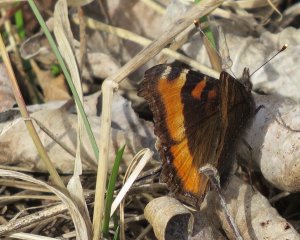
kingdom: Animalia
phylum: Arthropoda
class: Insecta
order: Lepidoptera
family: Nymphalidae
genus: Aglais
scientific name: Aglais milberti
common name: Milbert's Tortoiseshell
